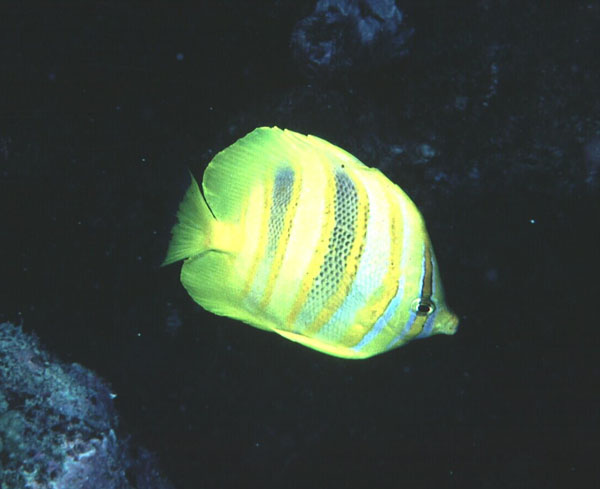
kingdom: Animalia
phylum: Chordata
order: Perciformes
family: Chaetodontidae
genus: Chaetodon
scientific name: Chaetodon rainfordi
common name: Rainford's butterflyfish
